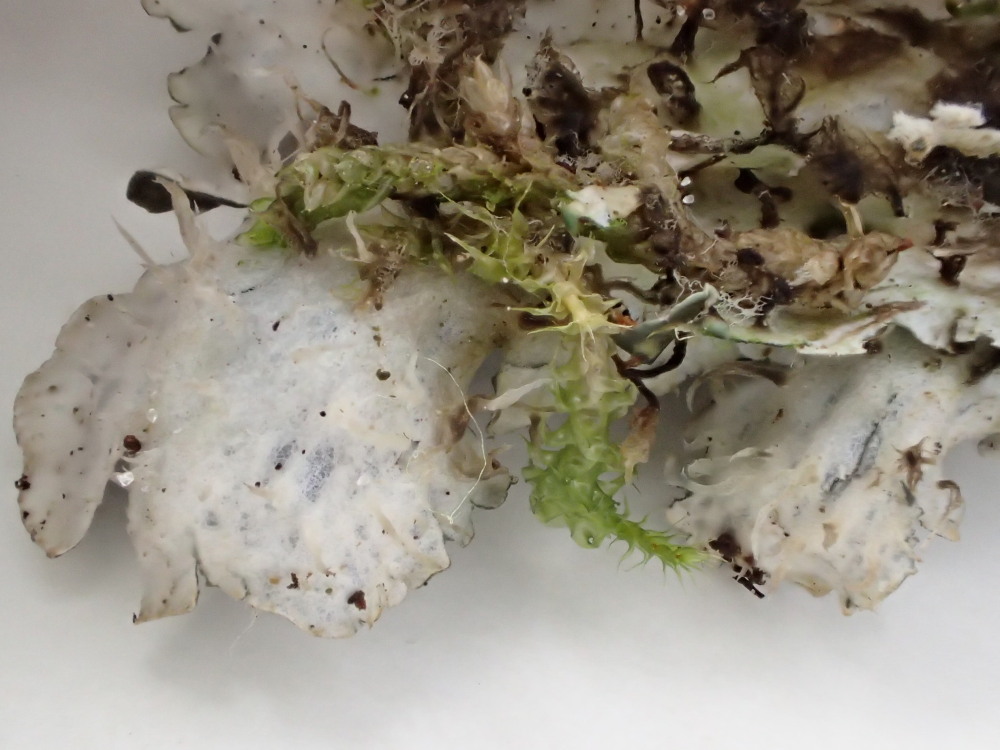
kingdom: Fungi
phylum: Ascomycota
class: Lecanoromycetes
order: Peltigerales
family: Peltigeraceae
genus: Peltigera
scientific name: Peltigera hymenina
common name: hinde-skjoldlav
